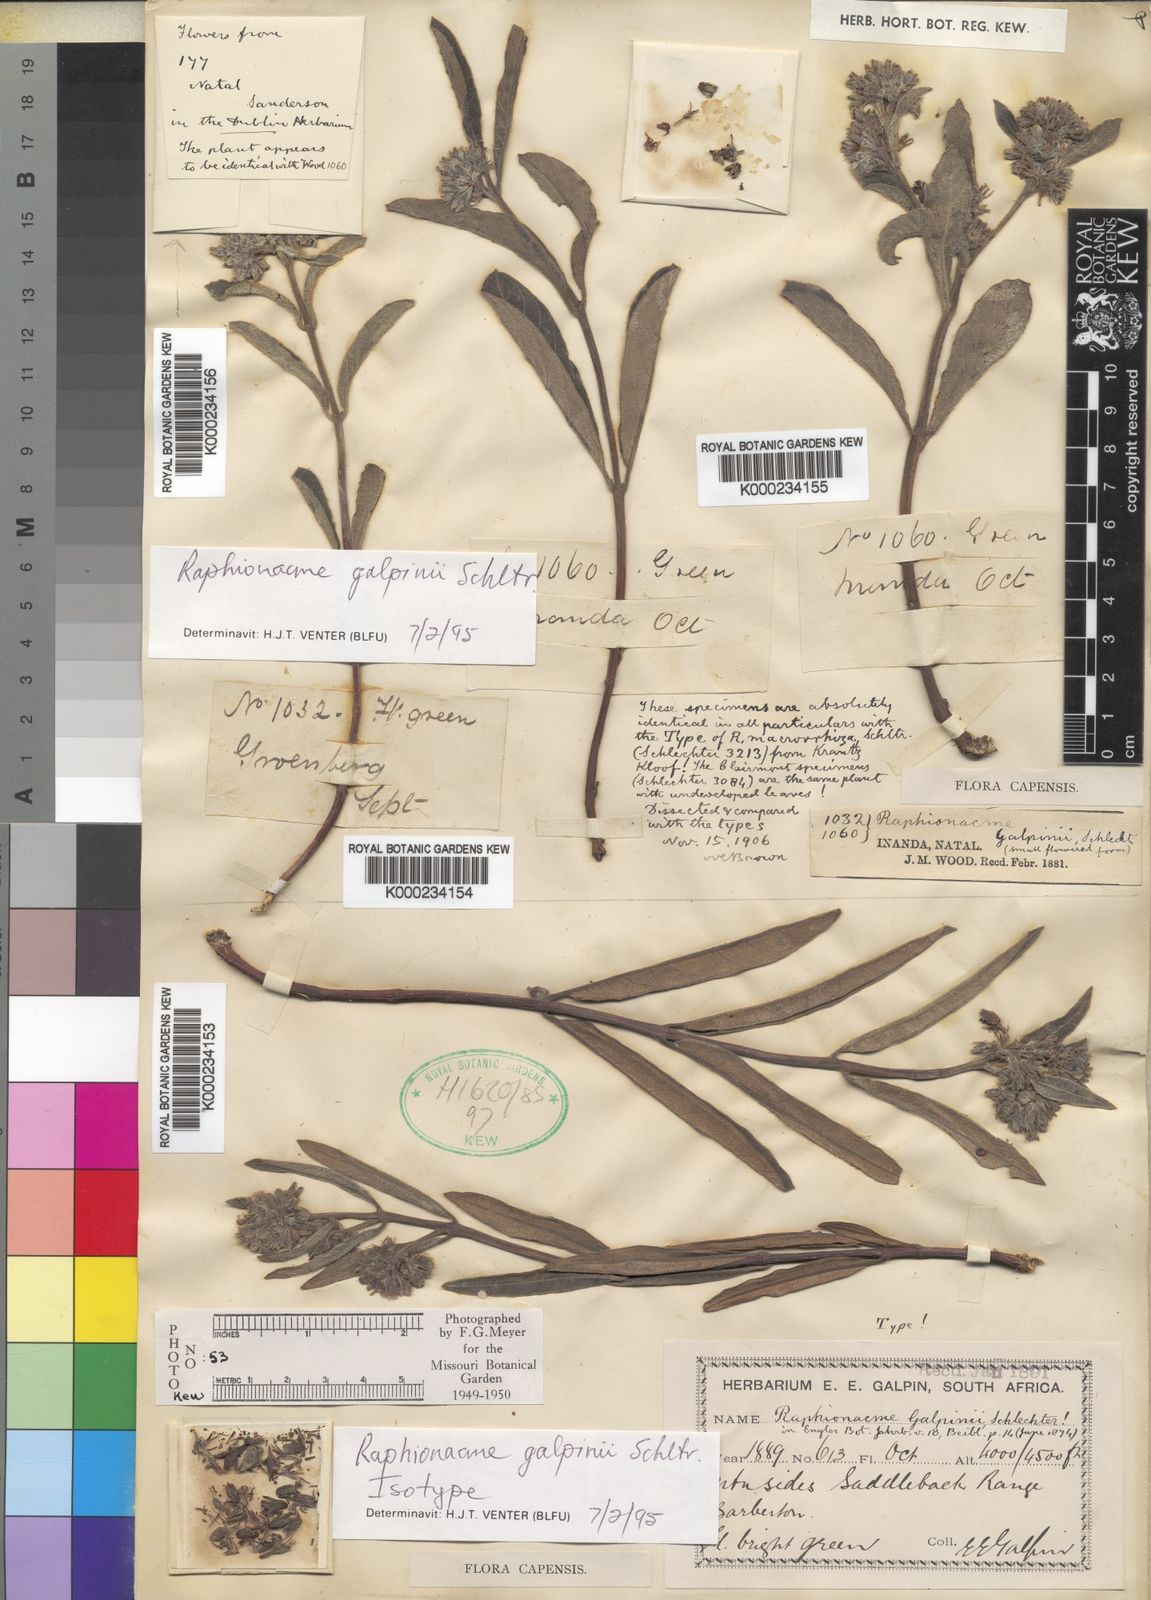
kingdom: Plantae
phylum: Tracheophyta
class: Magnoliopsida
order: Gentianales
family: Apocynaceae
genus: Raphionacme
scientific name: Raphionacme galpinii
